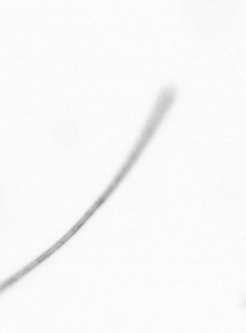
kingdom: Chromista
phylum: Ochrophyta
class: Bacillariophyceae
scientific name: Bacillariophyceae
